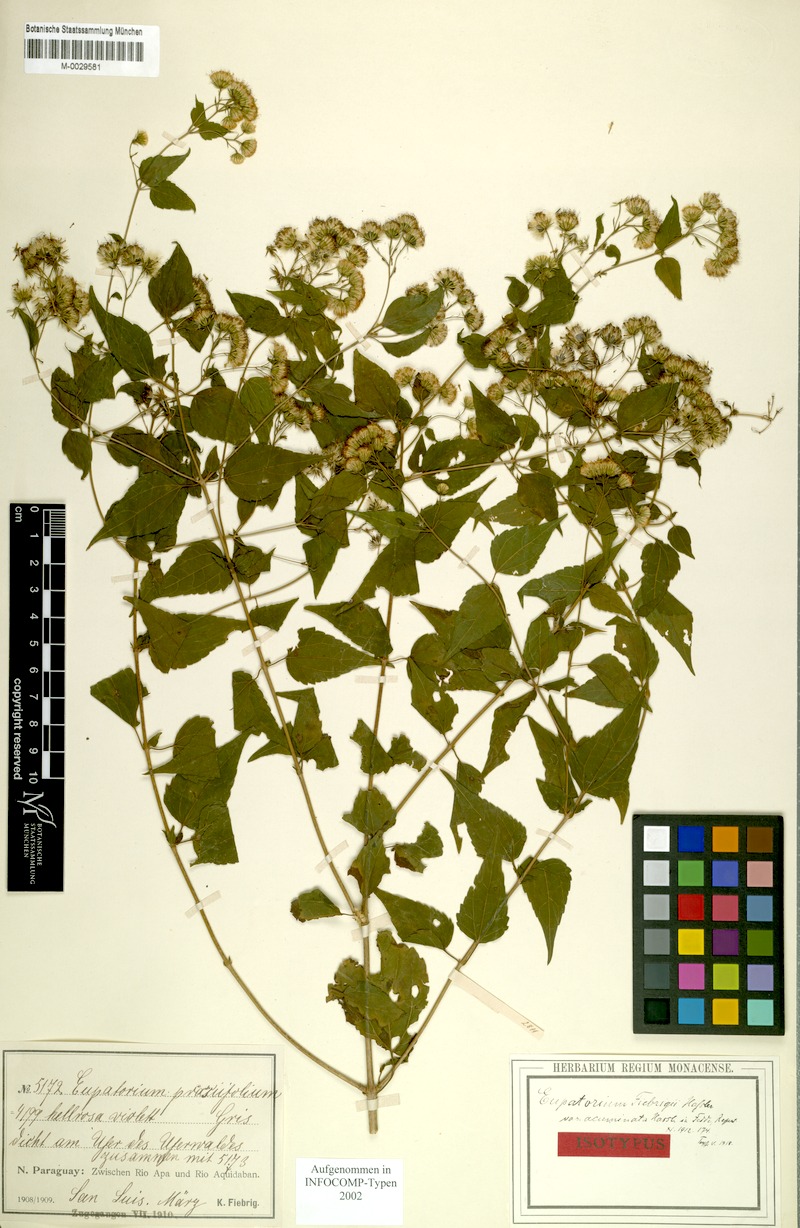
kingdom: Plantae
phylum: Tracheophyta
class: Magnoliopsida
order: Asterales
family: Asteraceae
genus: Fleischmannia
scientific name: Fleischmannia fiebrigii
